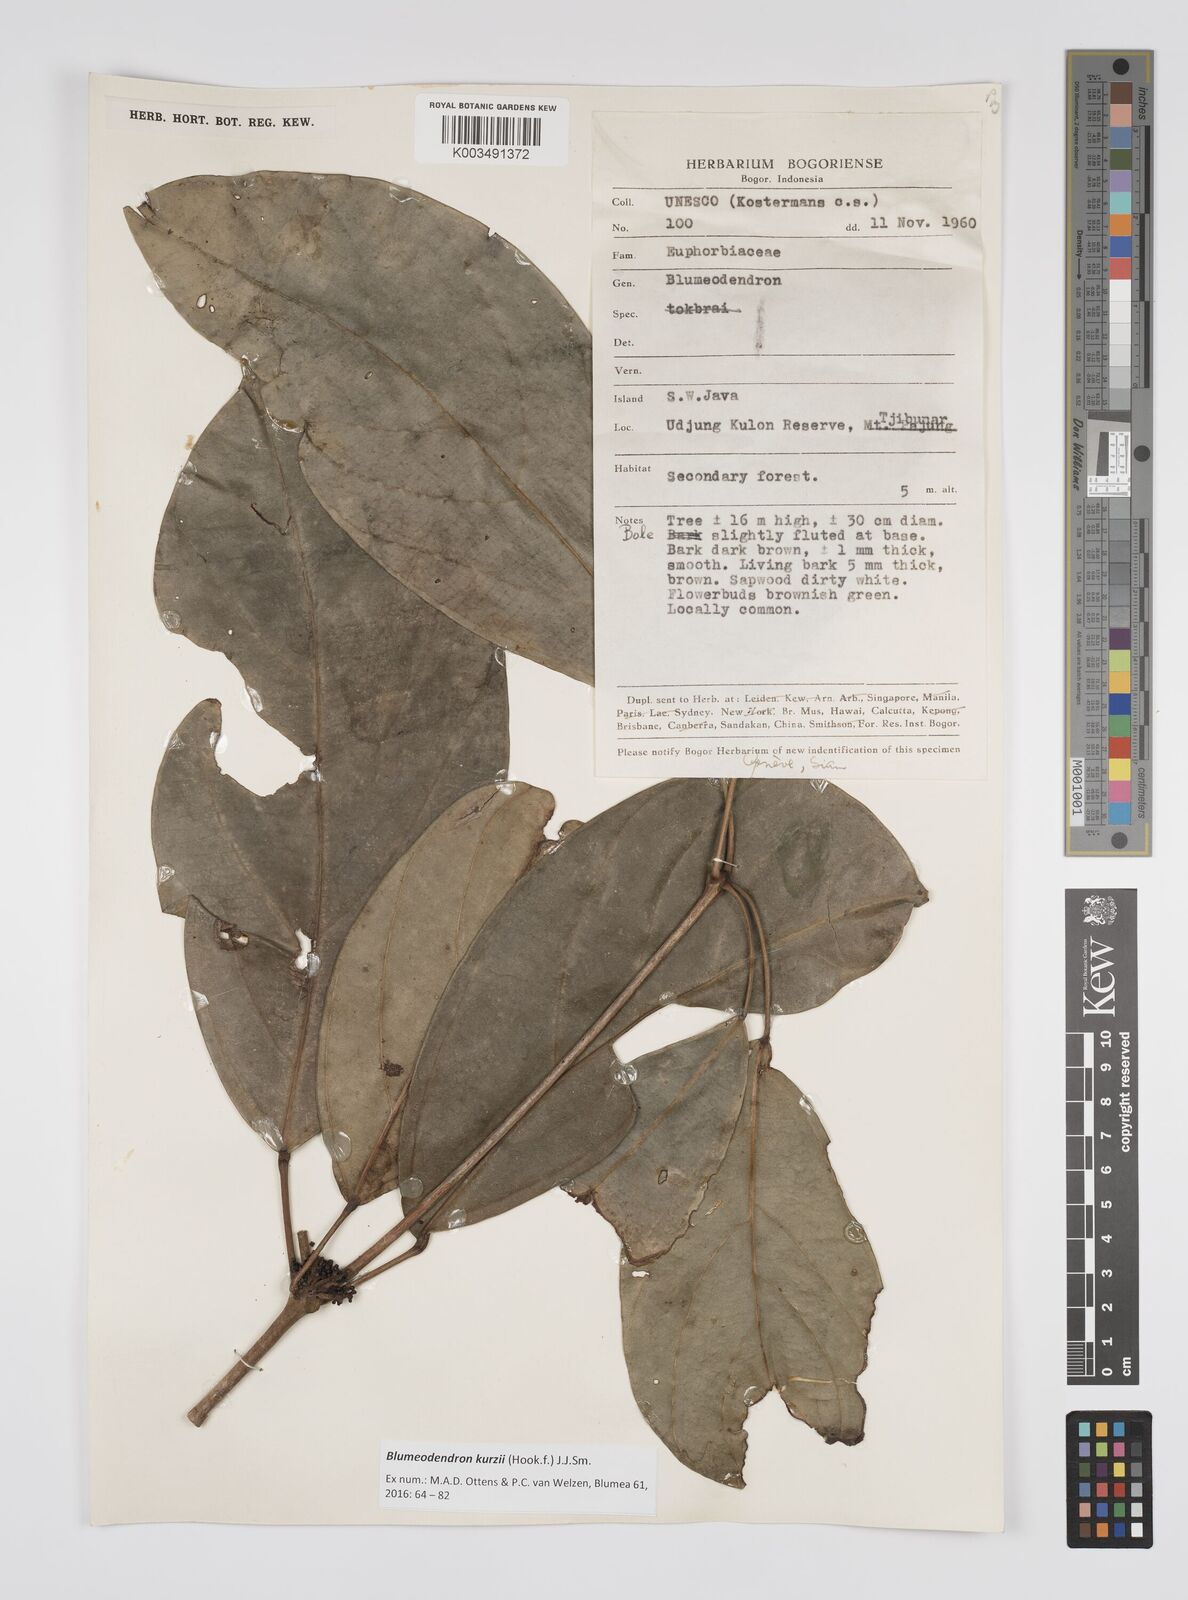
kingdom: Plantae
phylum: Tracheophyta
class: Magnoliopsida
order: Malpighiales
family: Euphorbiaceae
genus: Blumeodendron
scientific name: Blumeodendron kurzii
